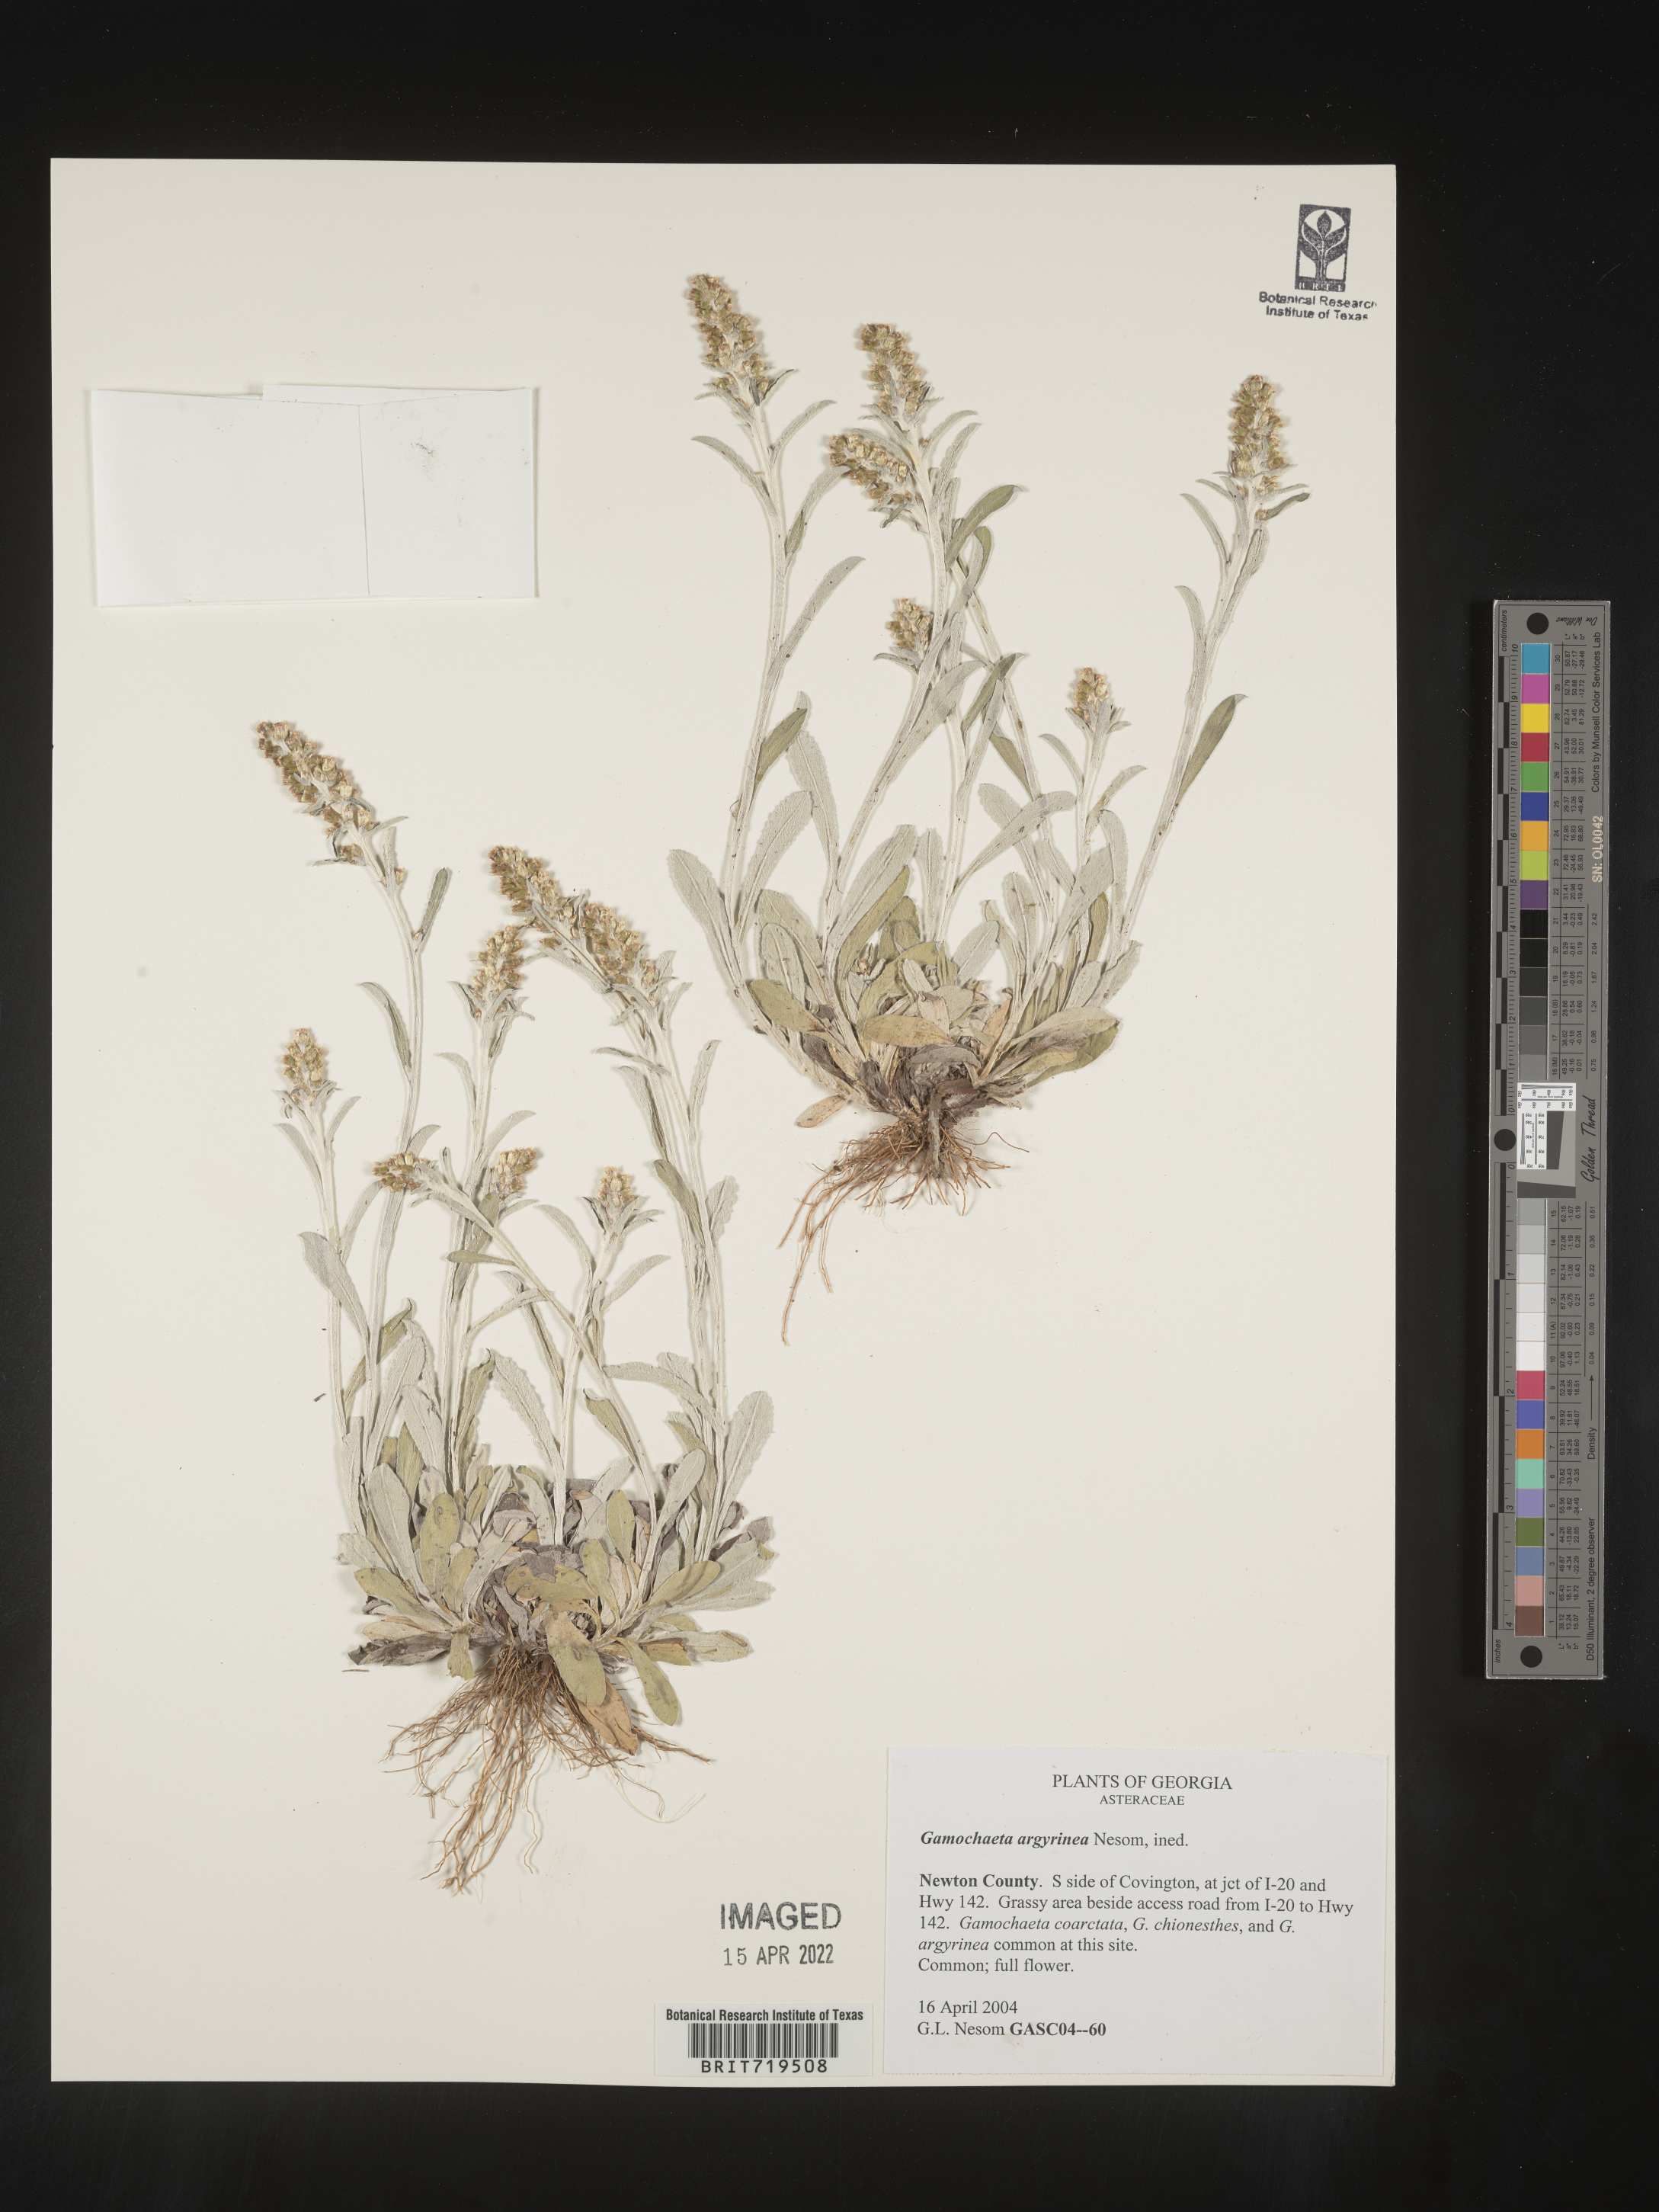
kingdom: Plantae
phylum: Tracheophyta
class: Magnoliopsida
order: Asterales
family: Asteraceae
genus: Gamochaeta
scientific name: Gamochaeta argyrinea
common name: Silvery cudweed
